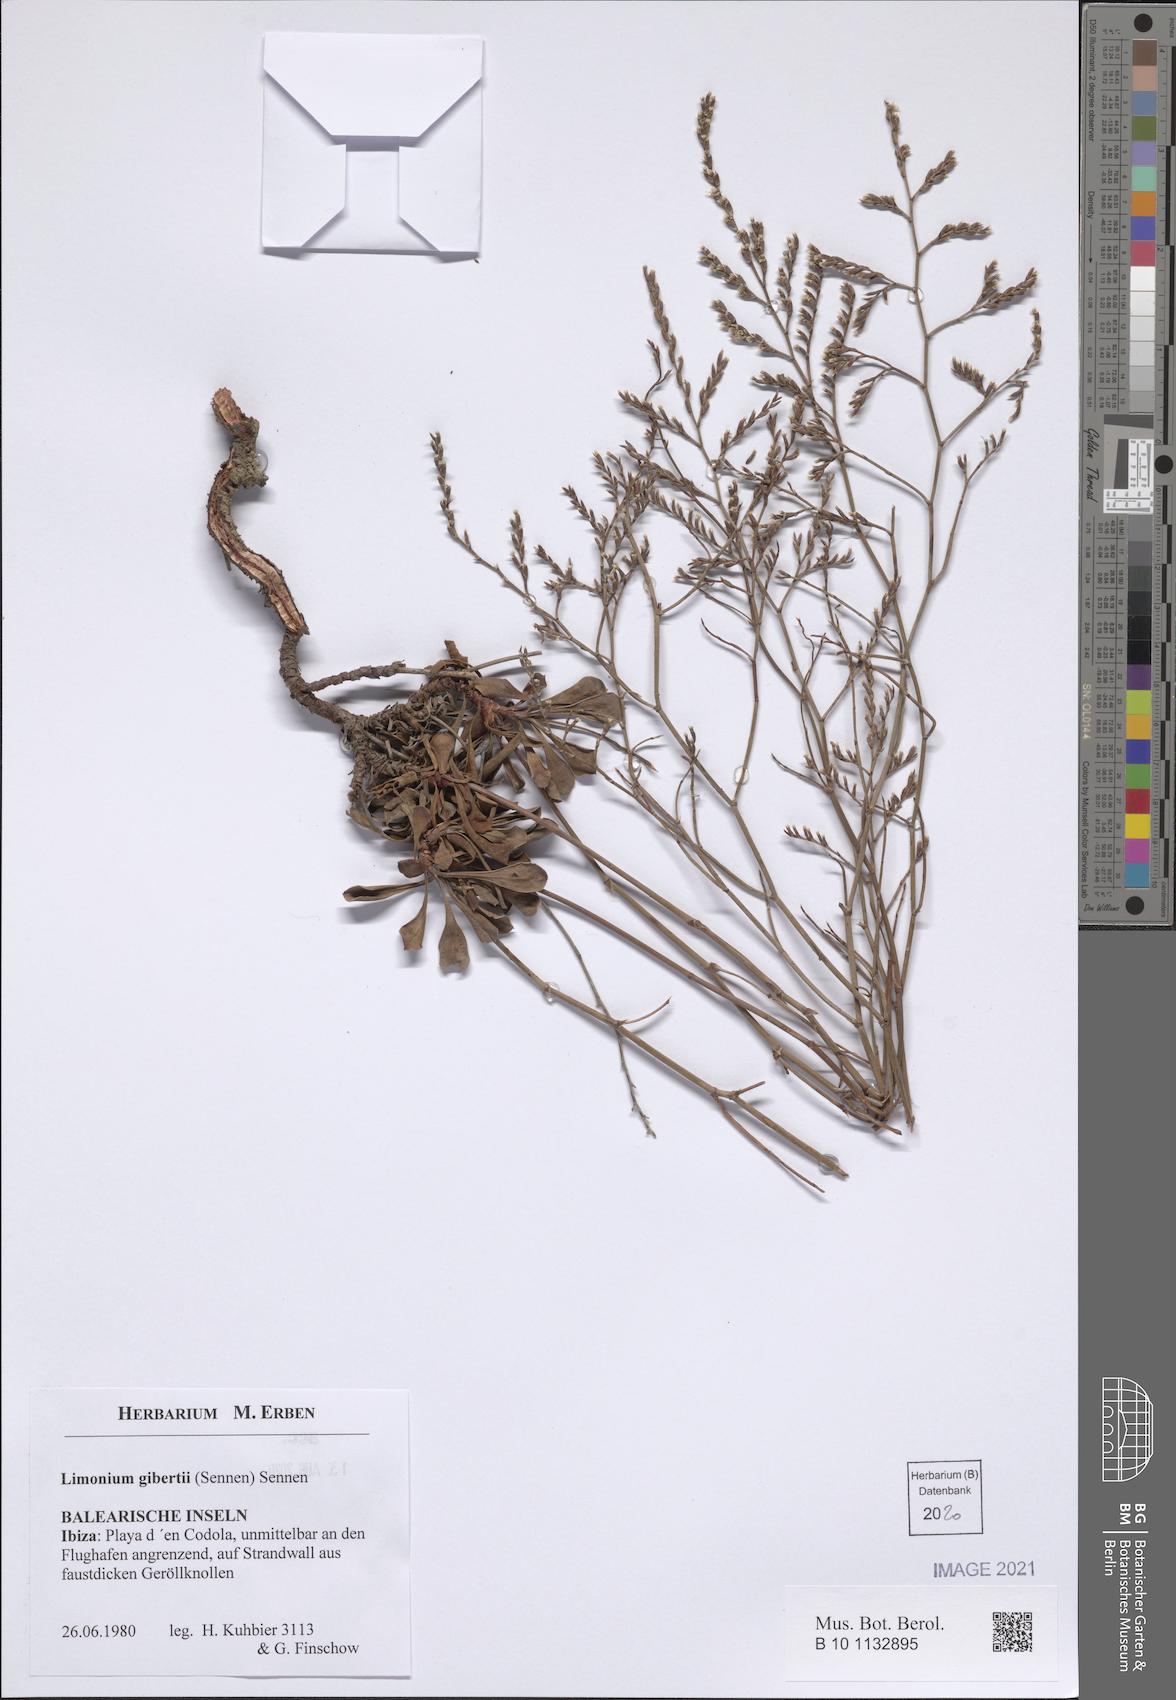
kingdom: Plantae
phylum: Tracheophyta
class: Magnoliopsida
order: Caryophyllales
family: Plumbaginaceae
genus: Limonium
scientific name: Limonium gibertii
